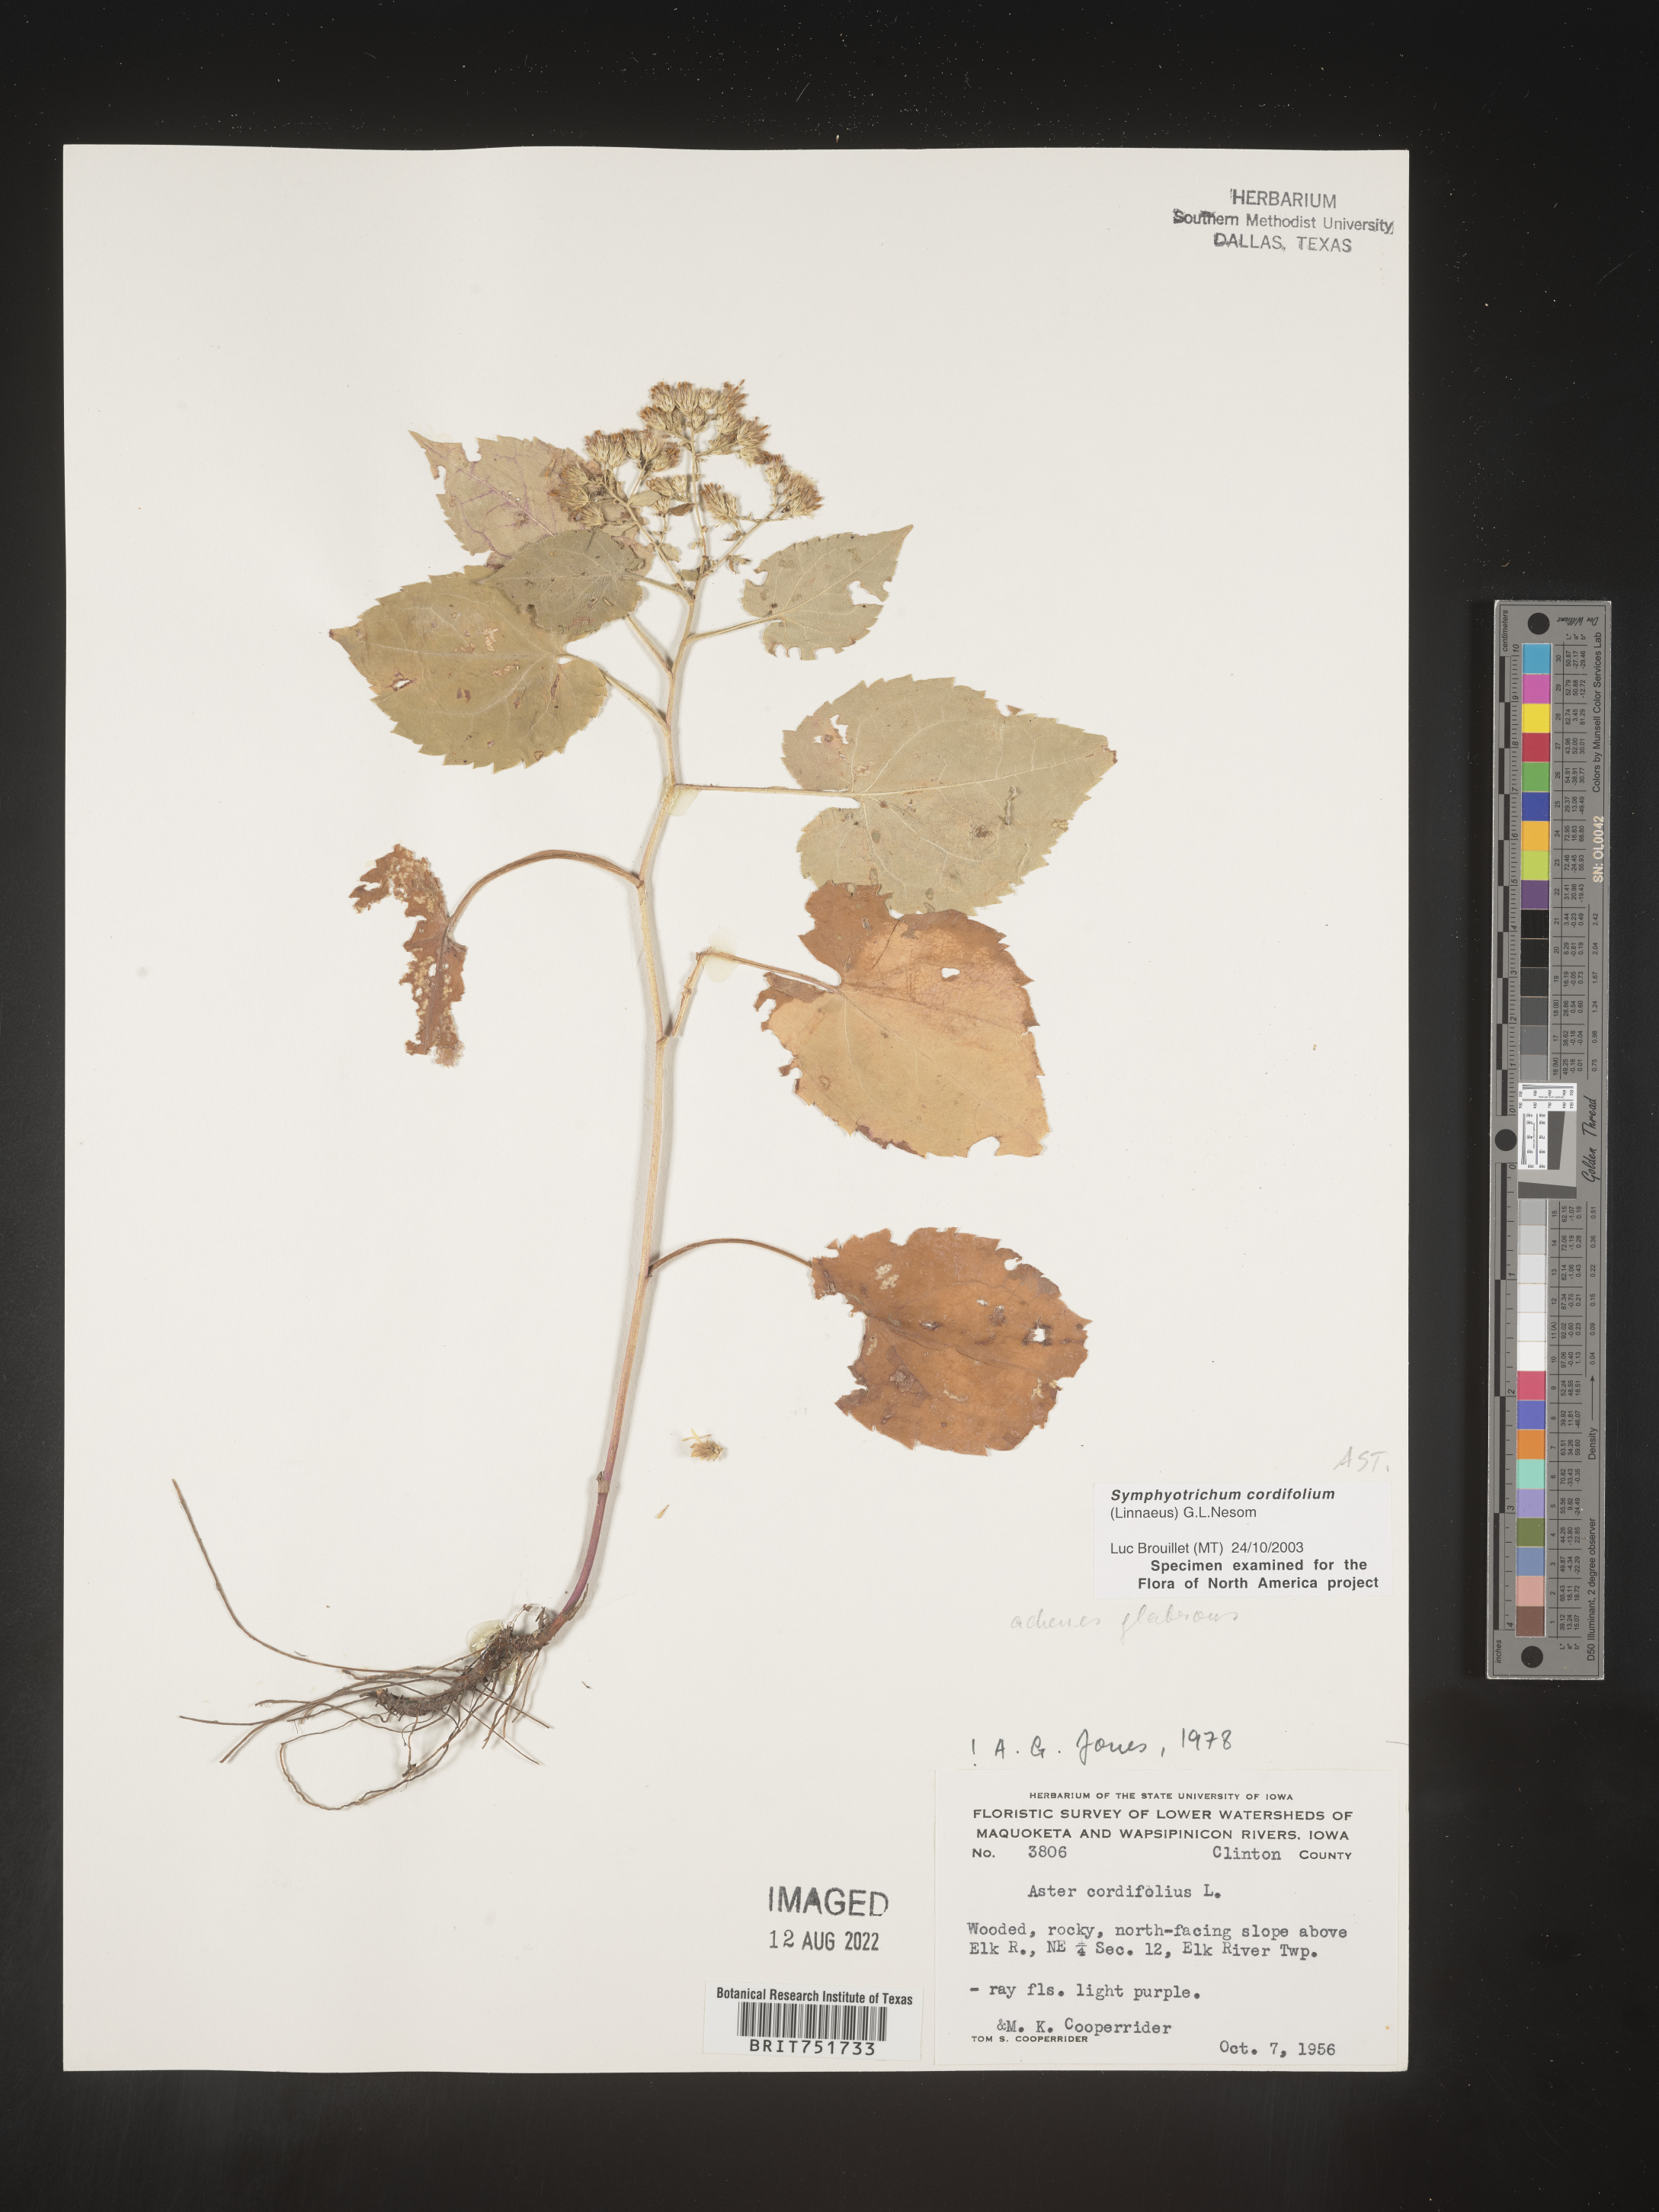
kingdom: Plantae
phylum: Tracheophyta
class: Magnoliopsida
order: Asterales
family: Asteraceae
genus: Symphyotrichum
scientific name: Symphyotrichum cordifolium
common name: Beeweed
